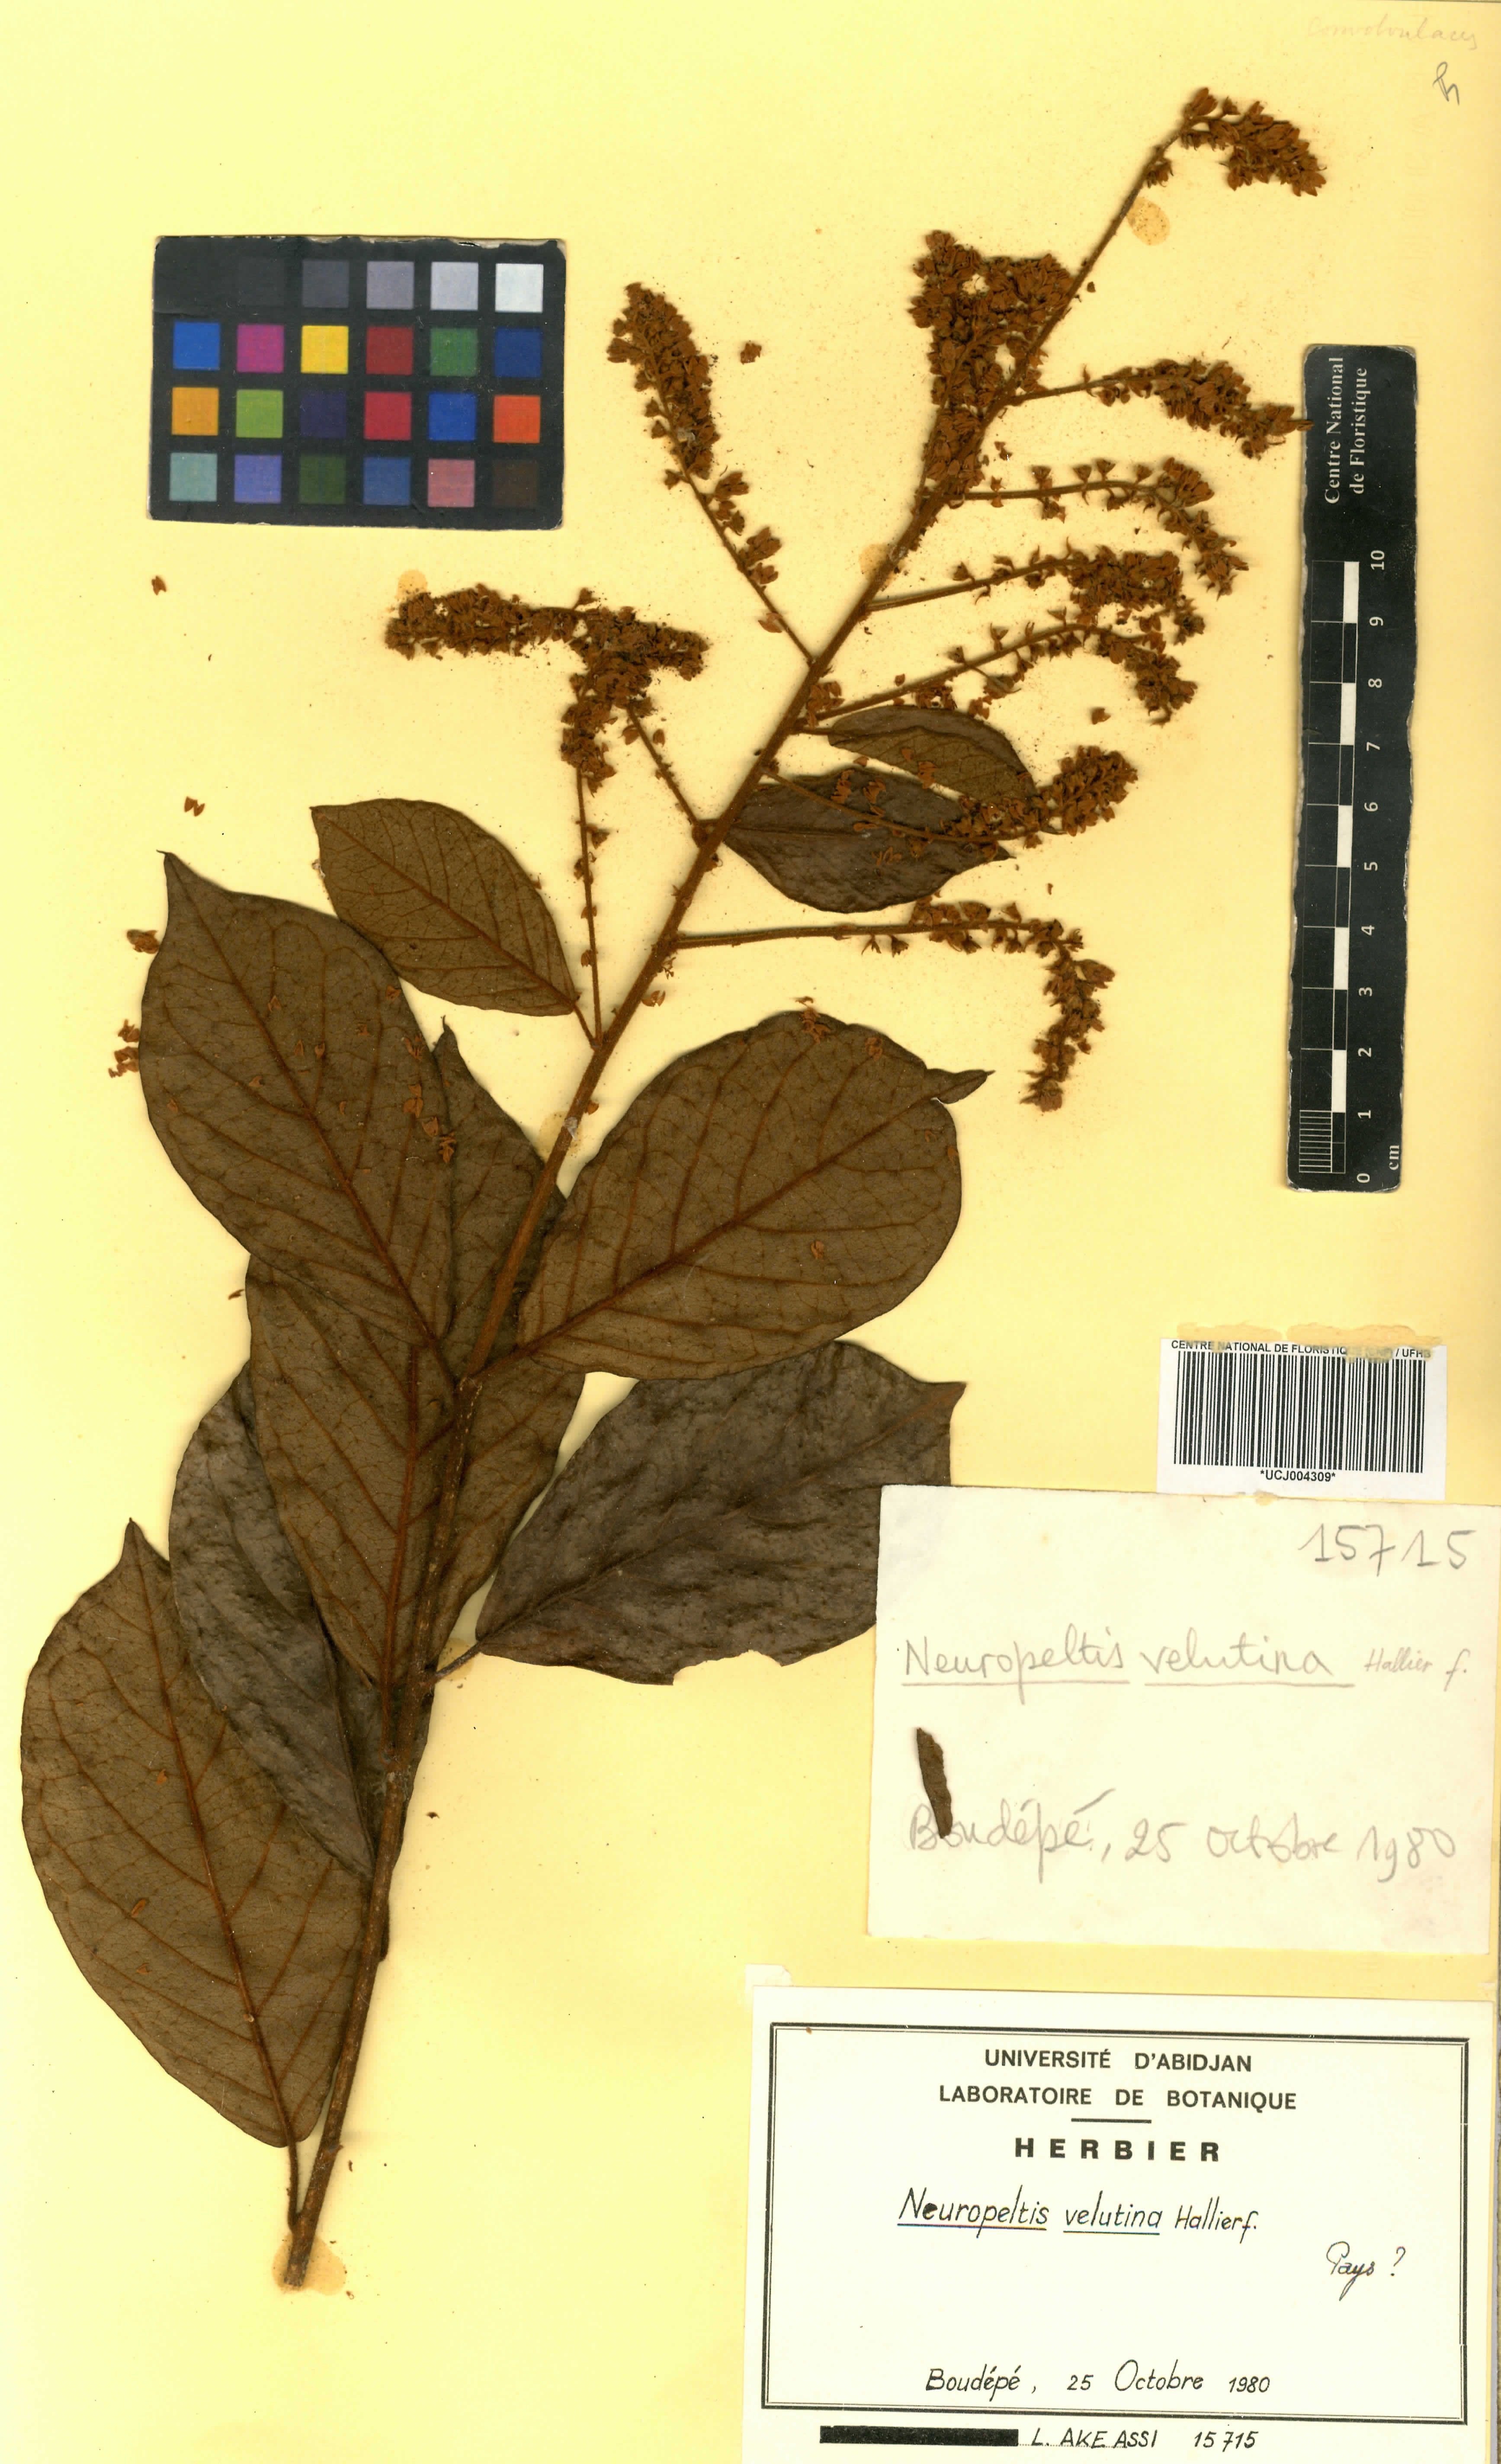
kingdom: Plantae
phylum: Tracheophyta
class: Magnoliopsida
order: Solanales
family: Convolvulaceae
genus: Neuropeltis
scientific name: Neuropeltis velutina
